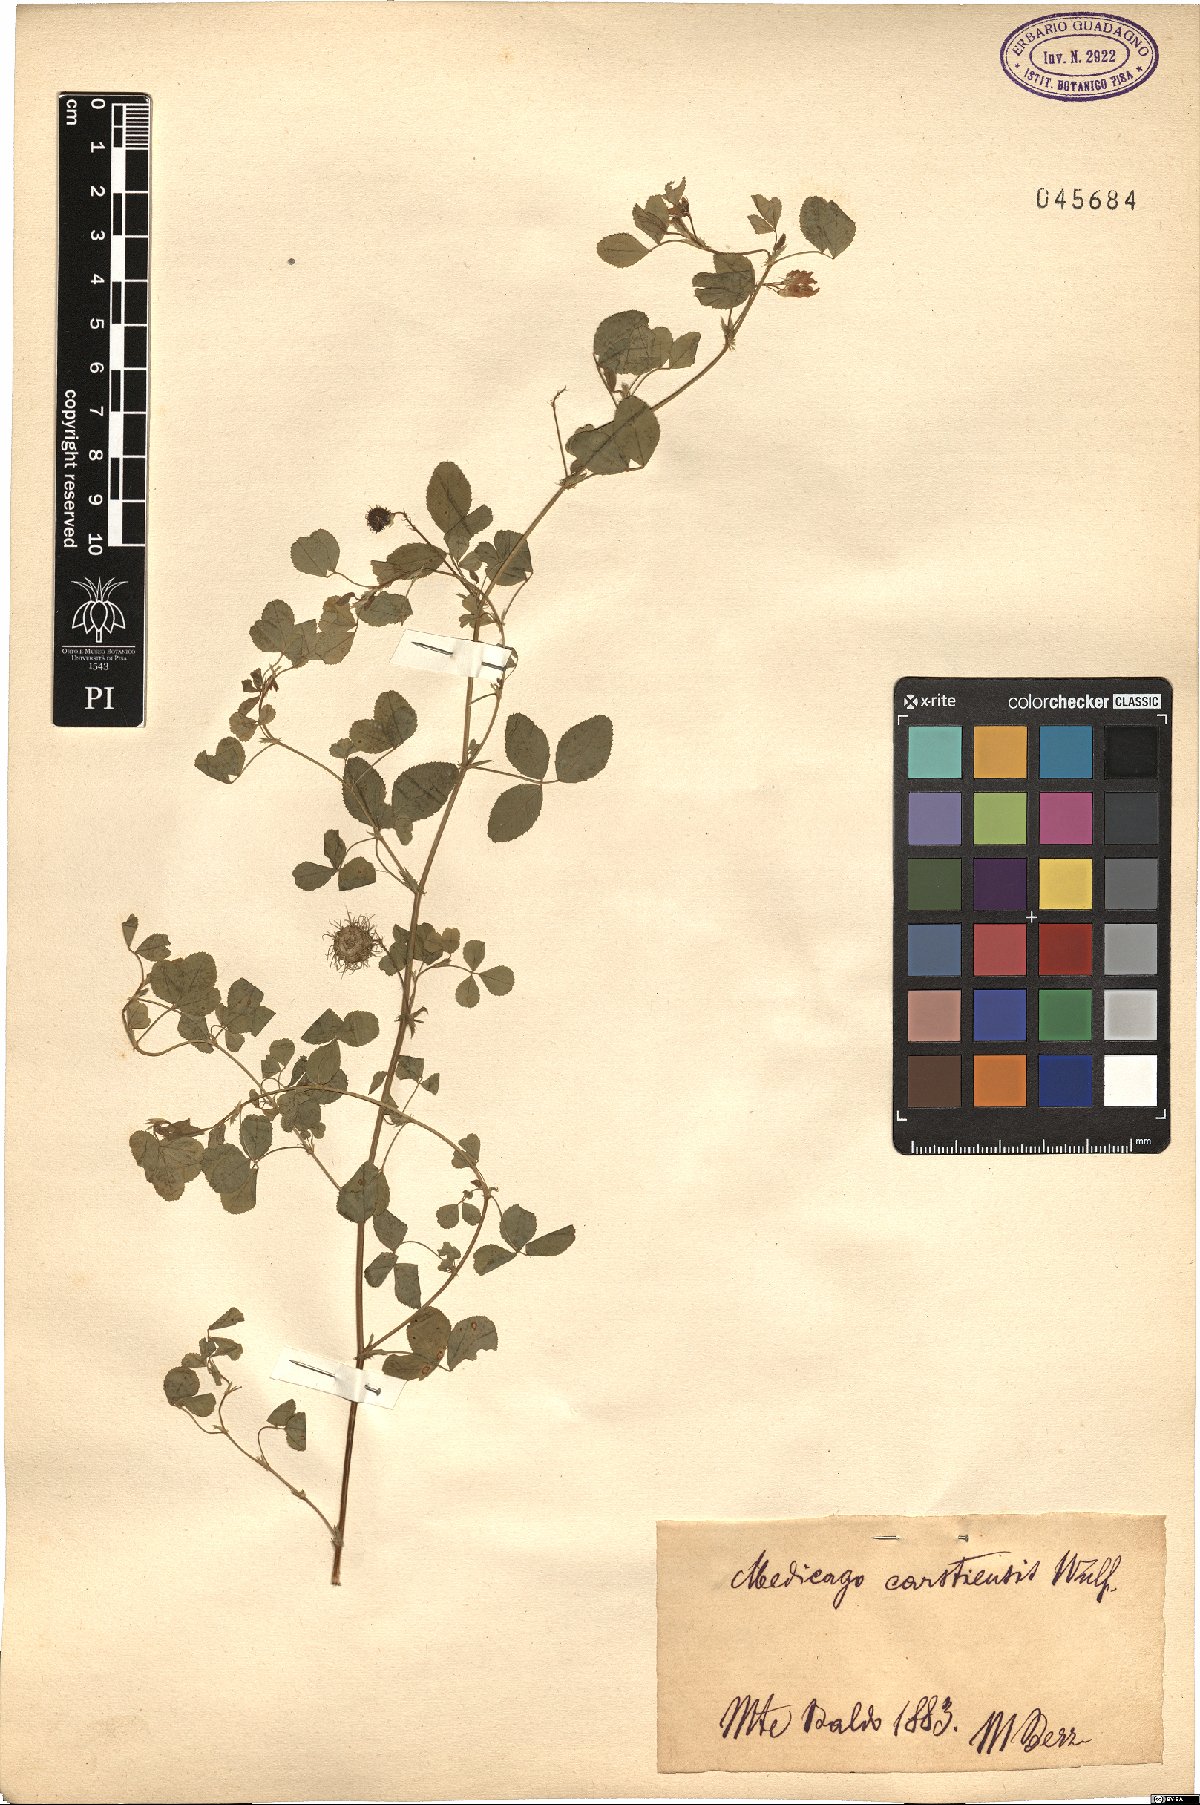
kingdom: Plantae
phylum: Tracheophyta
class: Magnoliopsida
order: Fabales
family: Fabaceae
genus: Medicago
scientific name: Medicago carstiensis
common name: Creeping-rooted medic
